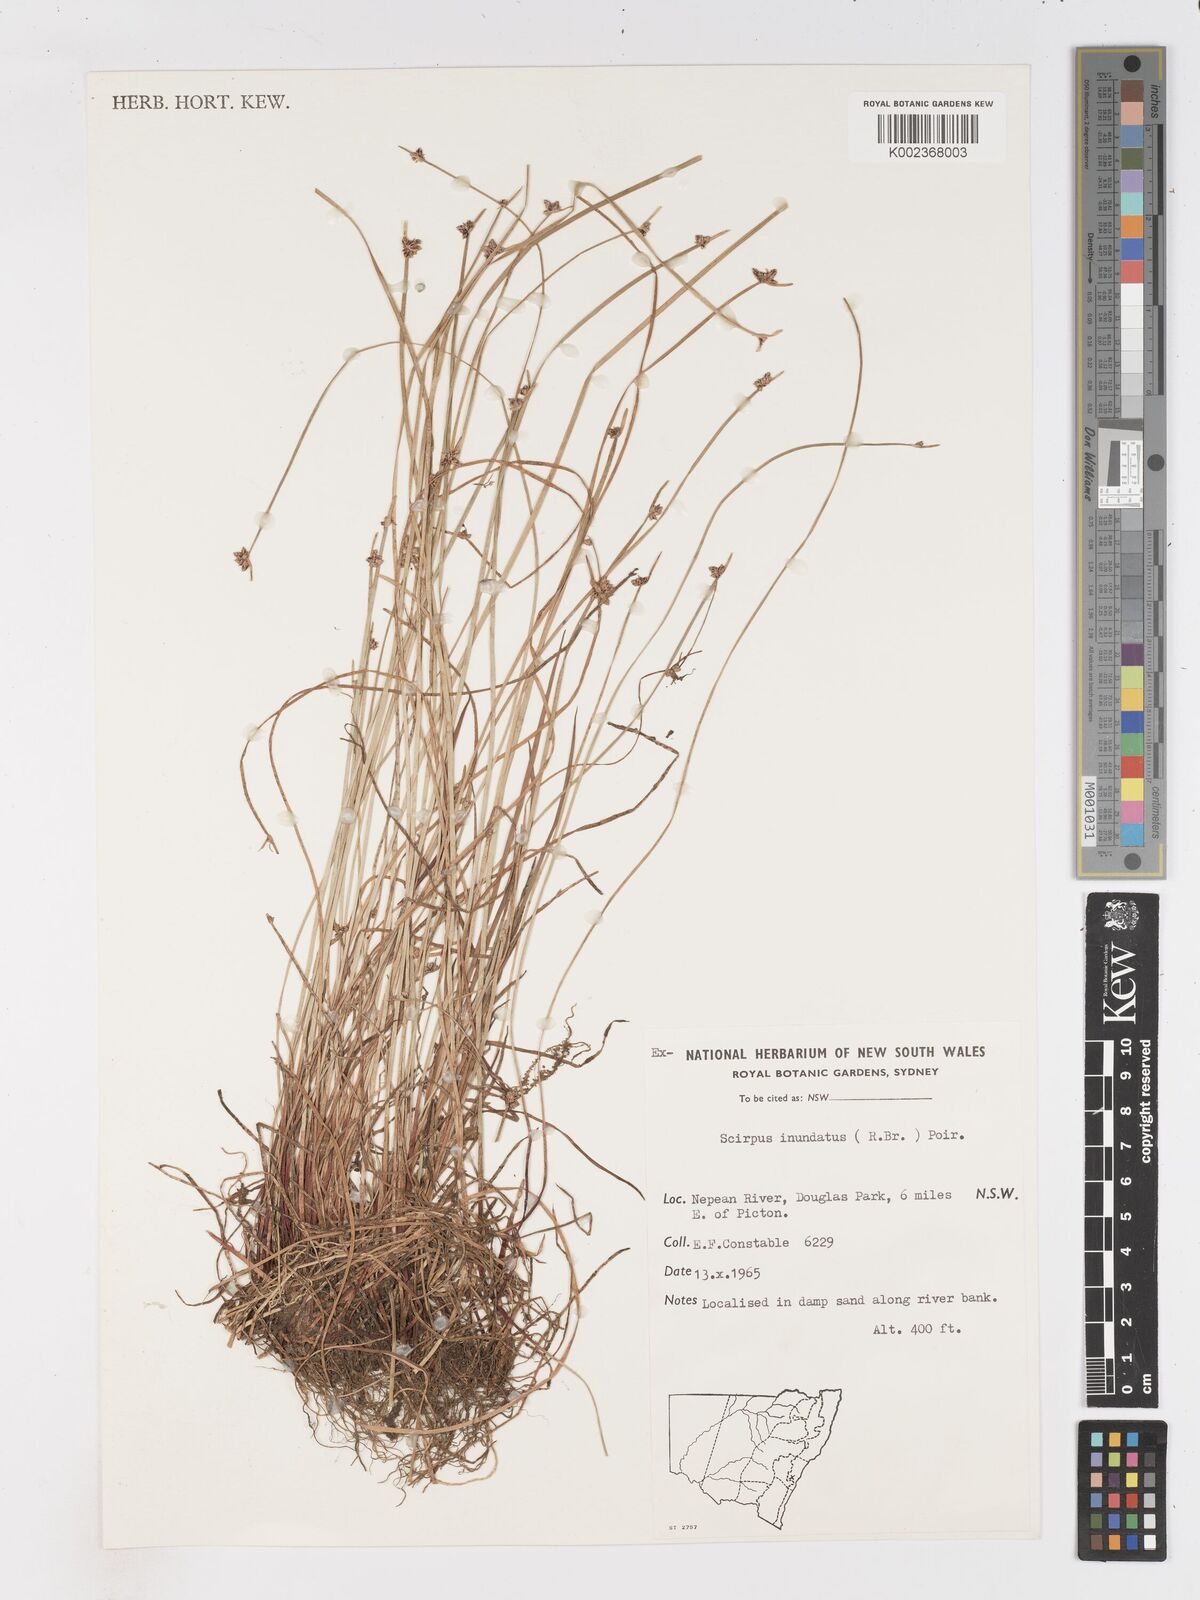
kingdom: Plantae
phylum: Tracheophyta
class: Liliopsida
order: Poales
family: Cyperaceae
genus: Isolepis
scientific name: Isolepis inundata
